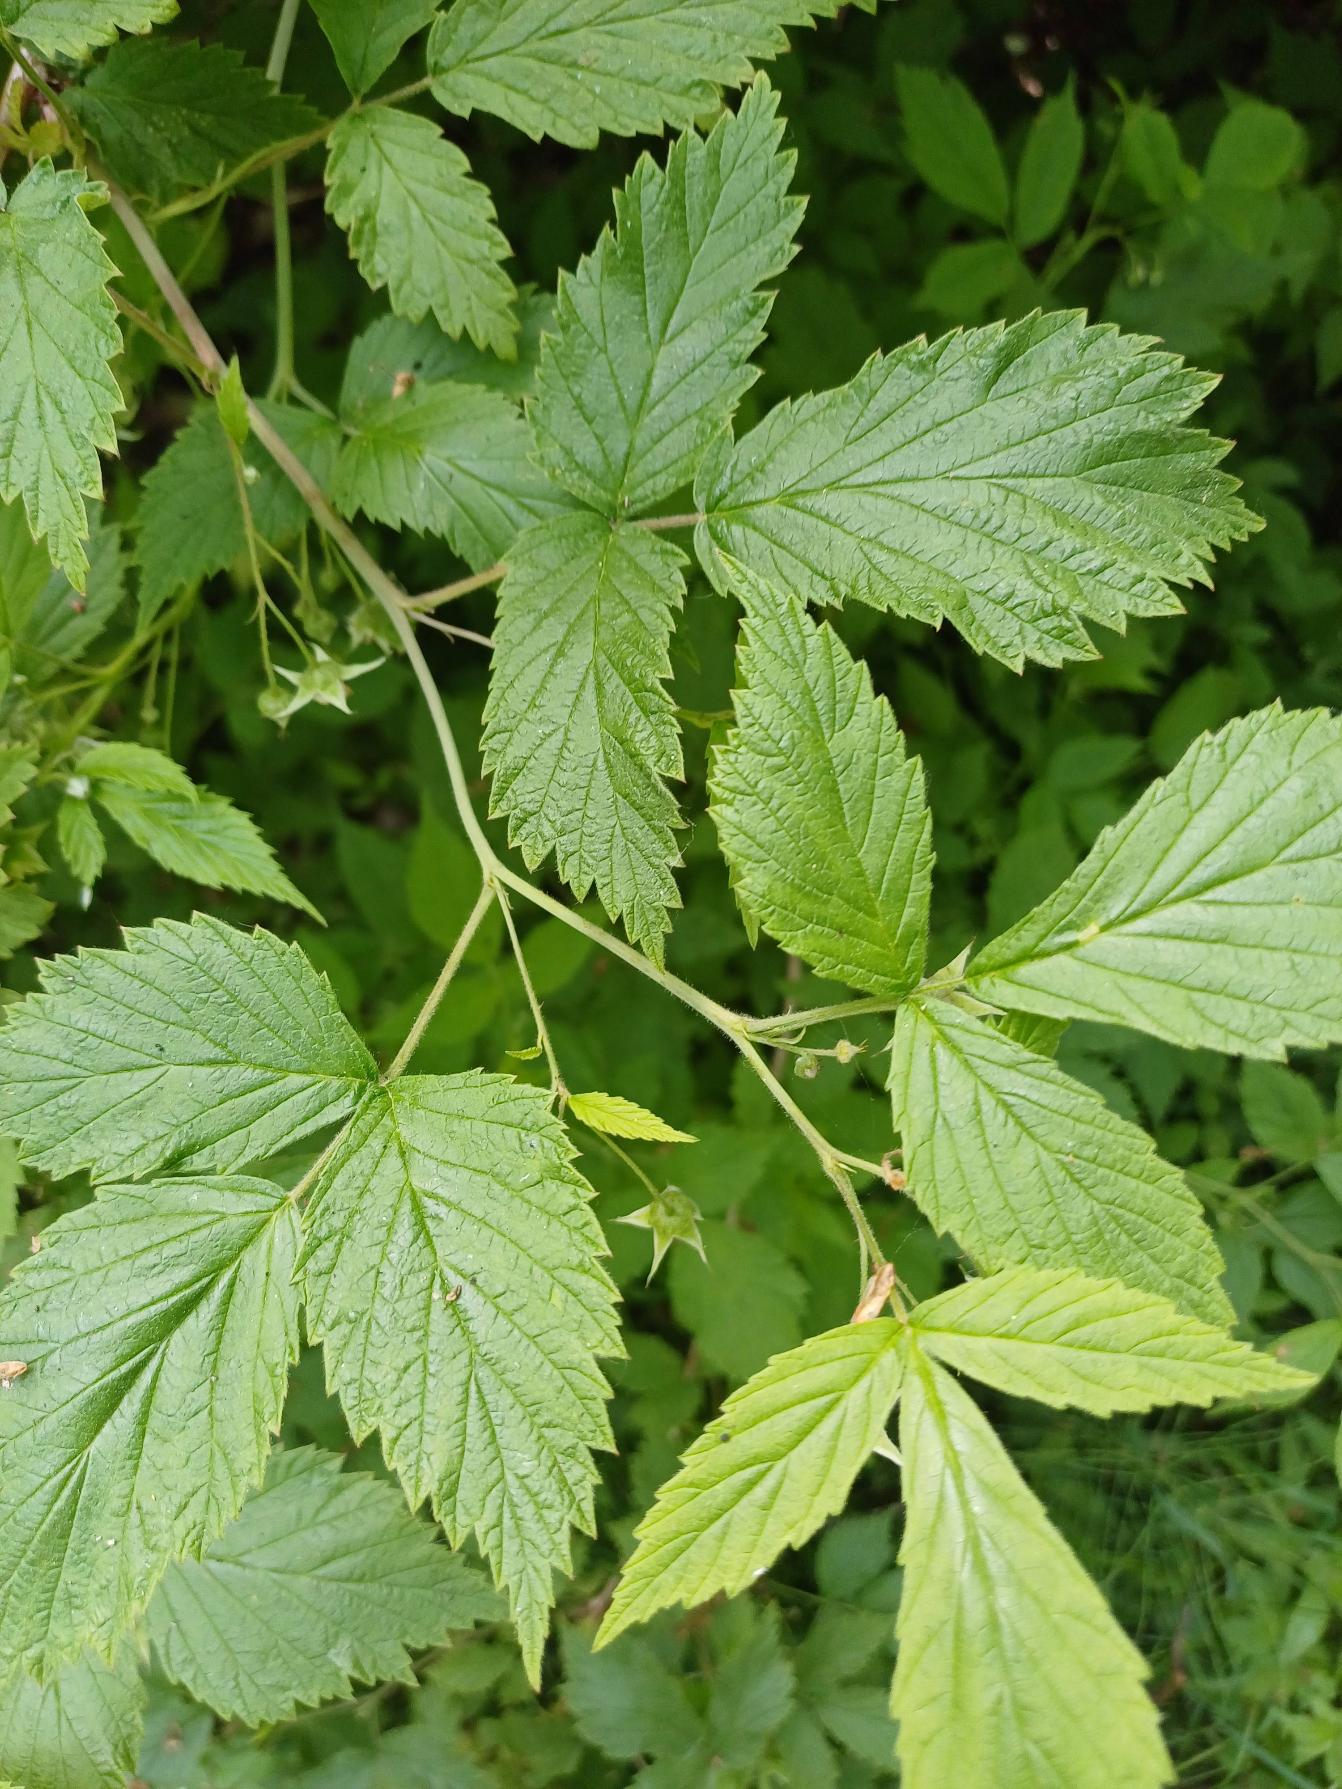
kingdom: Plantae
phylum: Tracheophyta
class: Magnoliopsida
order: Rosales
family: Rosaceae
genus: Rubus
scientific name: Rubus idaeus
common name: Hindbær
